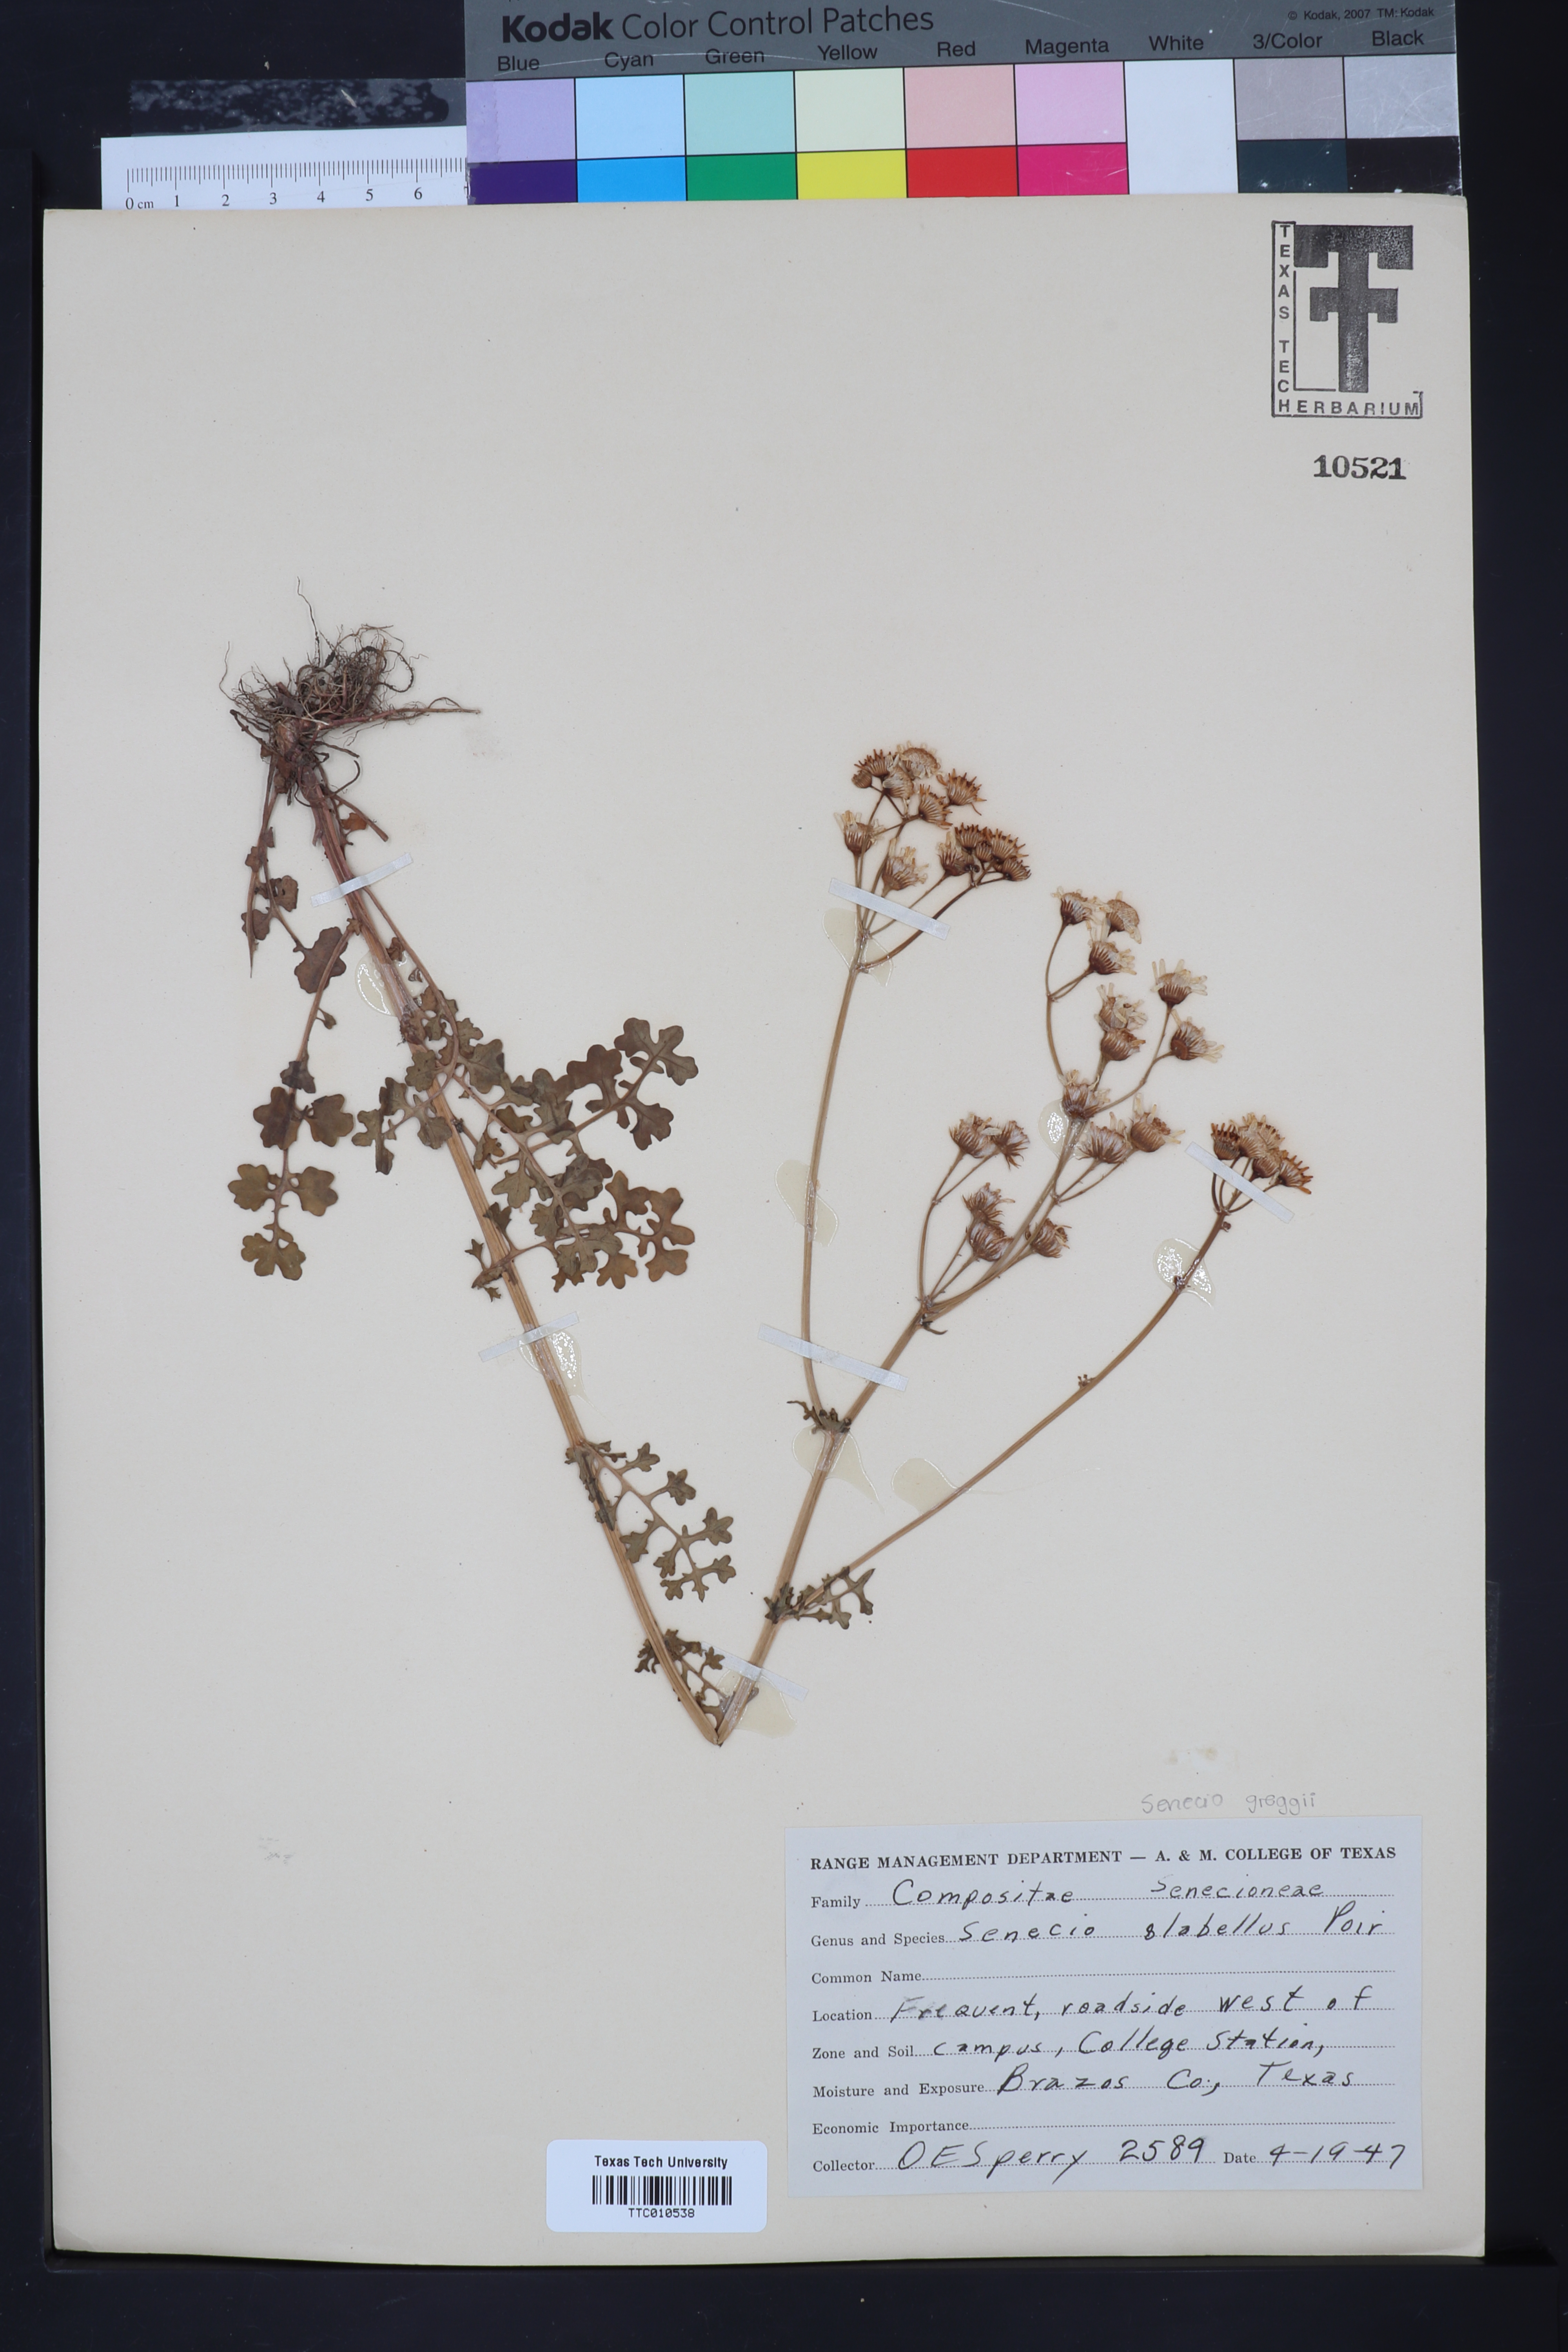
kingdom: Plantae
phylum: Tracheophyta
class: Magnoliopsida
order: Asterales
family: Asteraceae
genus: Tephroseris
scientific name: Tephroseris praticola
